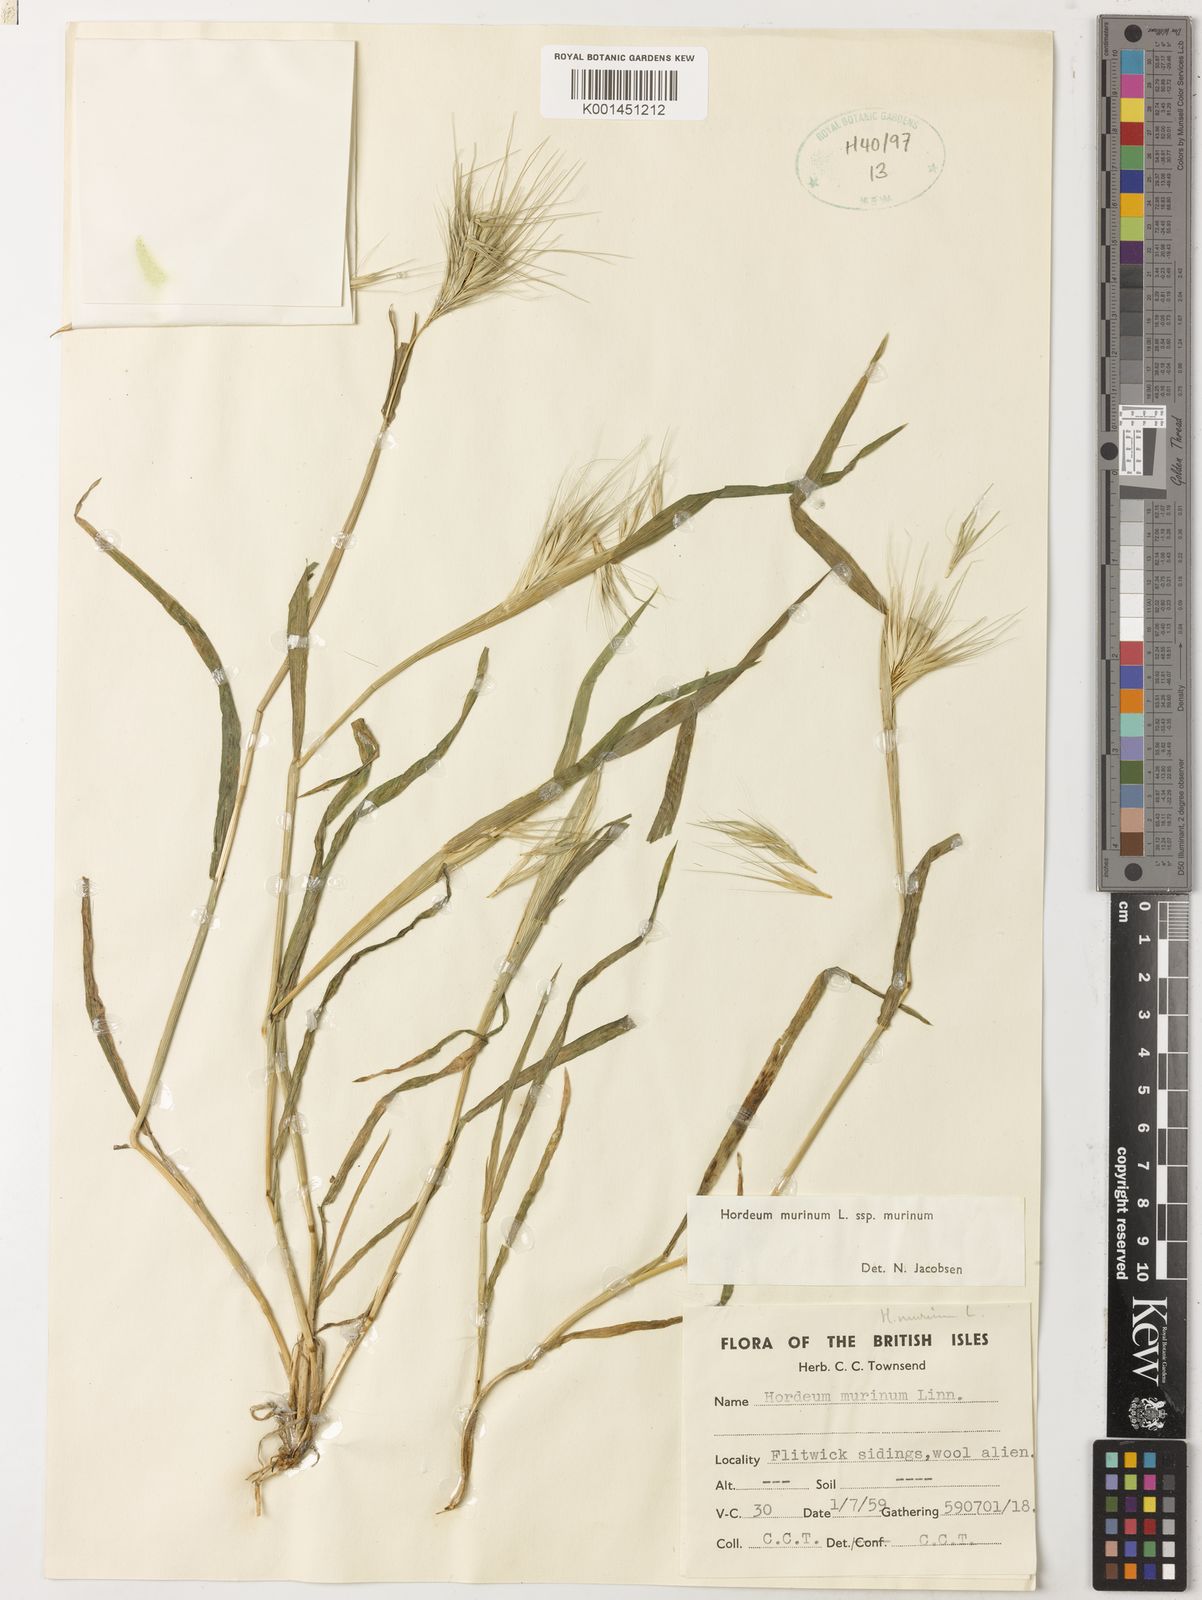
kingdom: Plantae
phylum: Tracheophyta
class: Liliopsida
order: Poales
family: Poaceae
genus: Hordeum
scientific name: Hordeum murinum
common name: Wall barley
